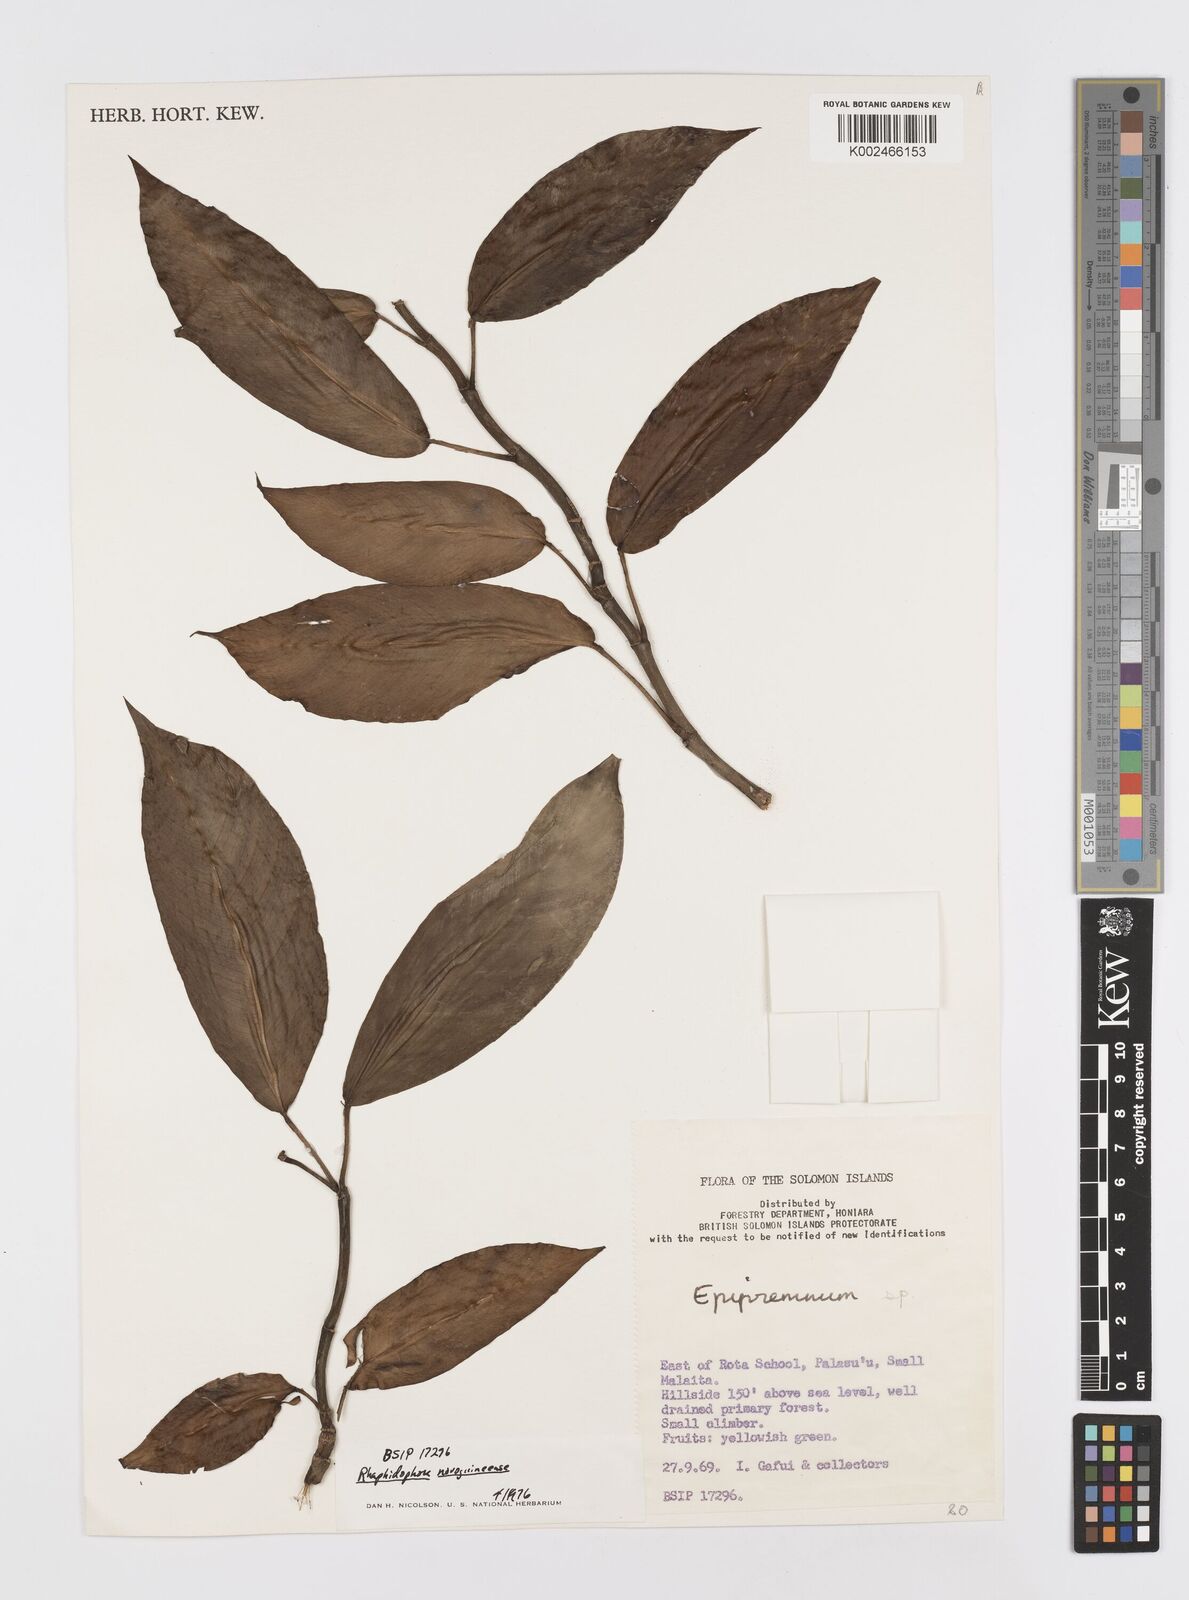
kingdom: Plantae
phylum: Tracheophyta
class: Liliopsida
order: Alismatales
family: Araceae
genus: Rhaphidophora
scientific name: Rhaphidophora mima
